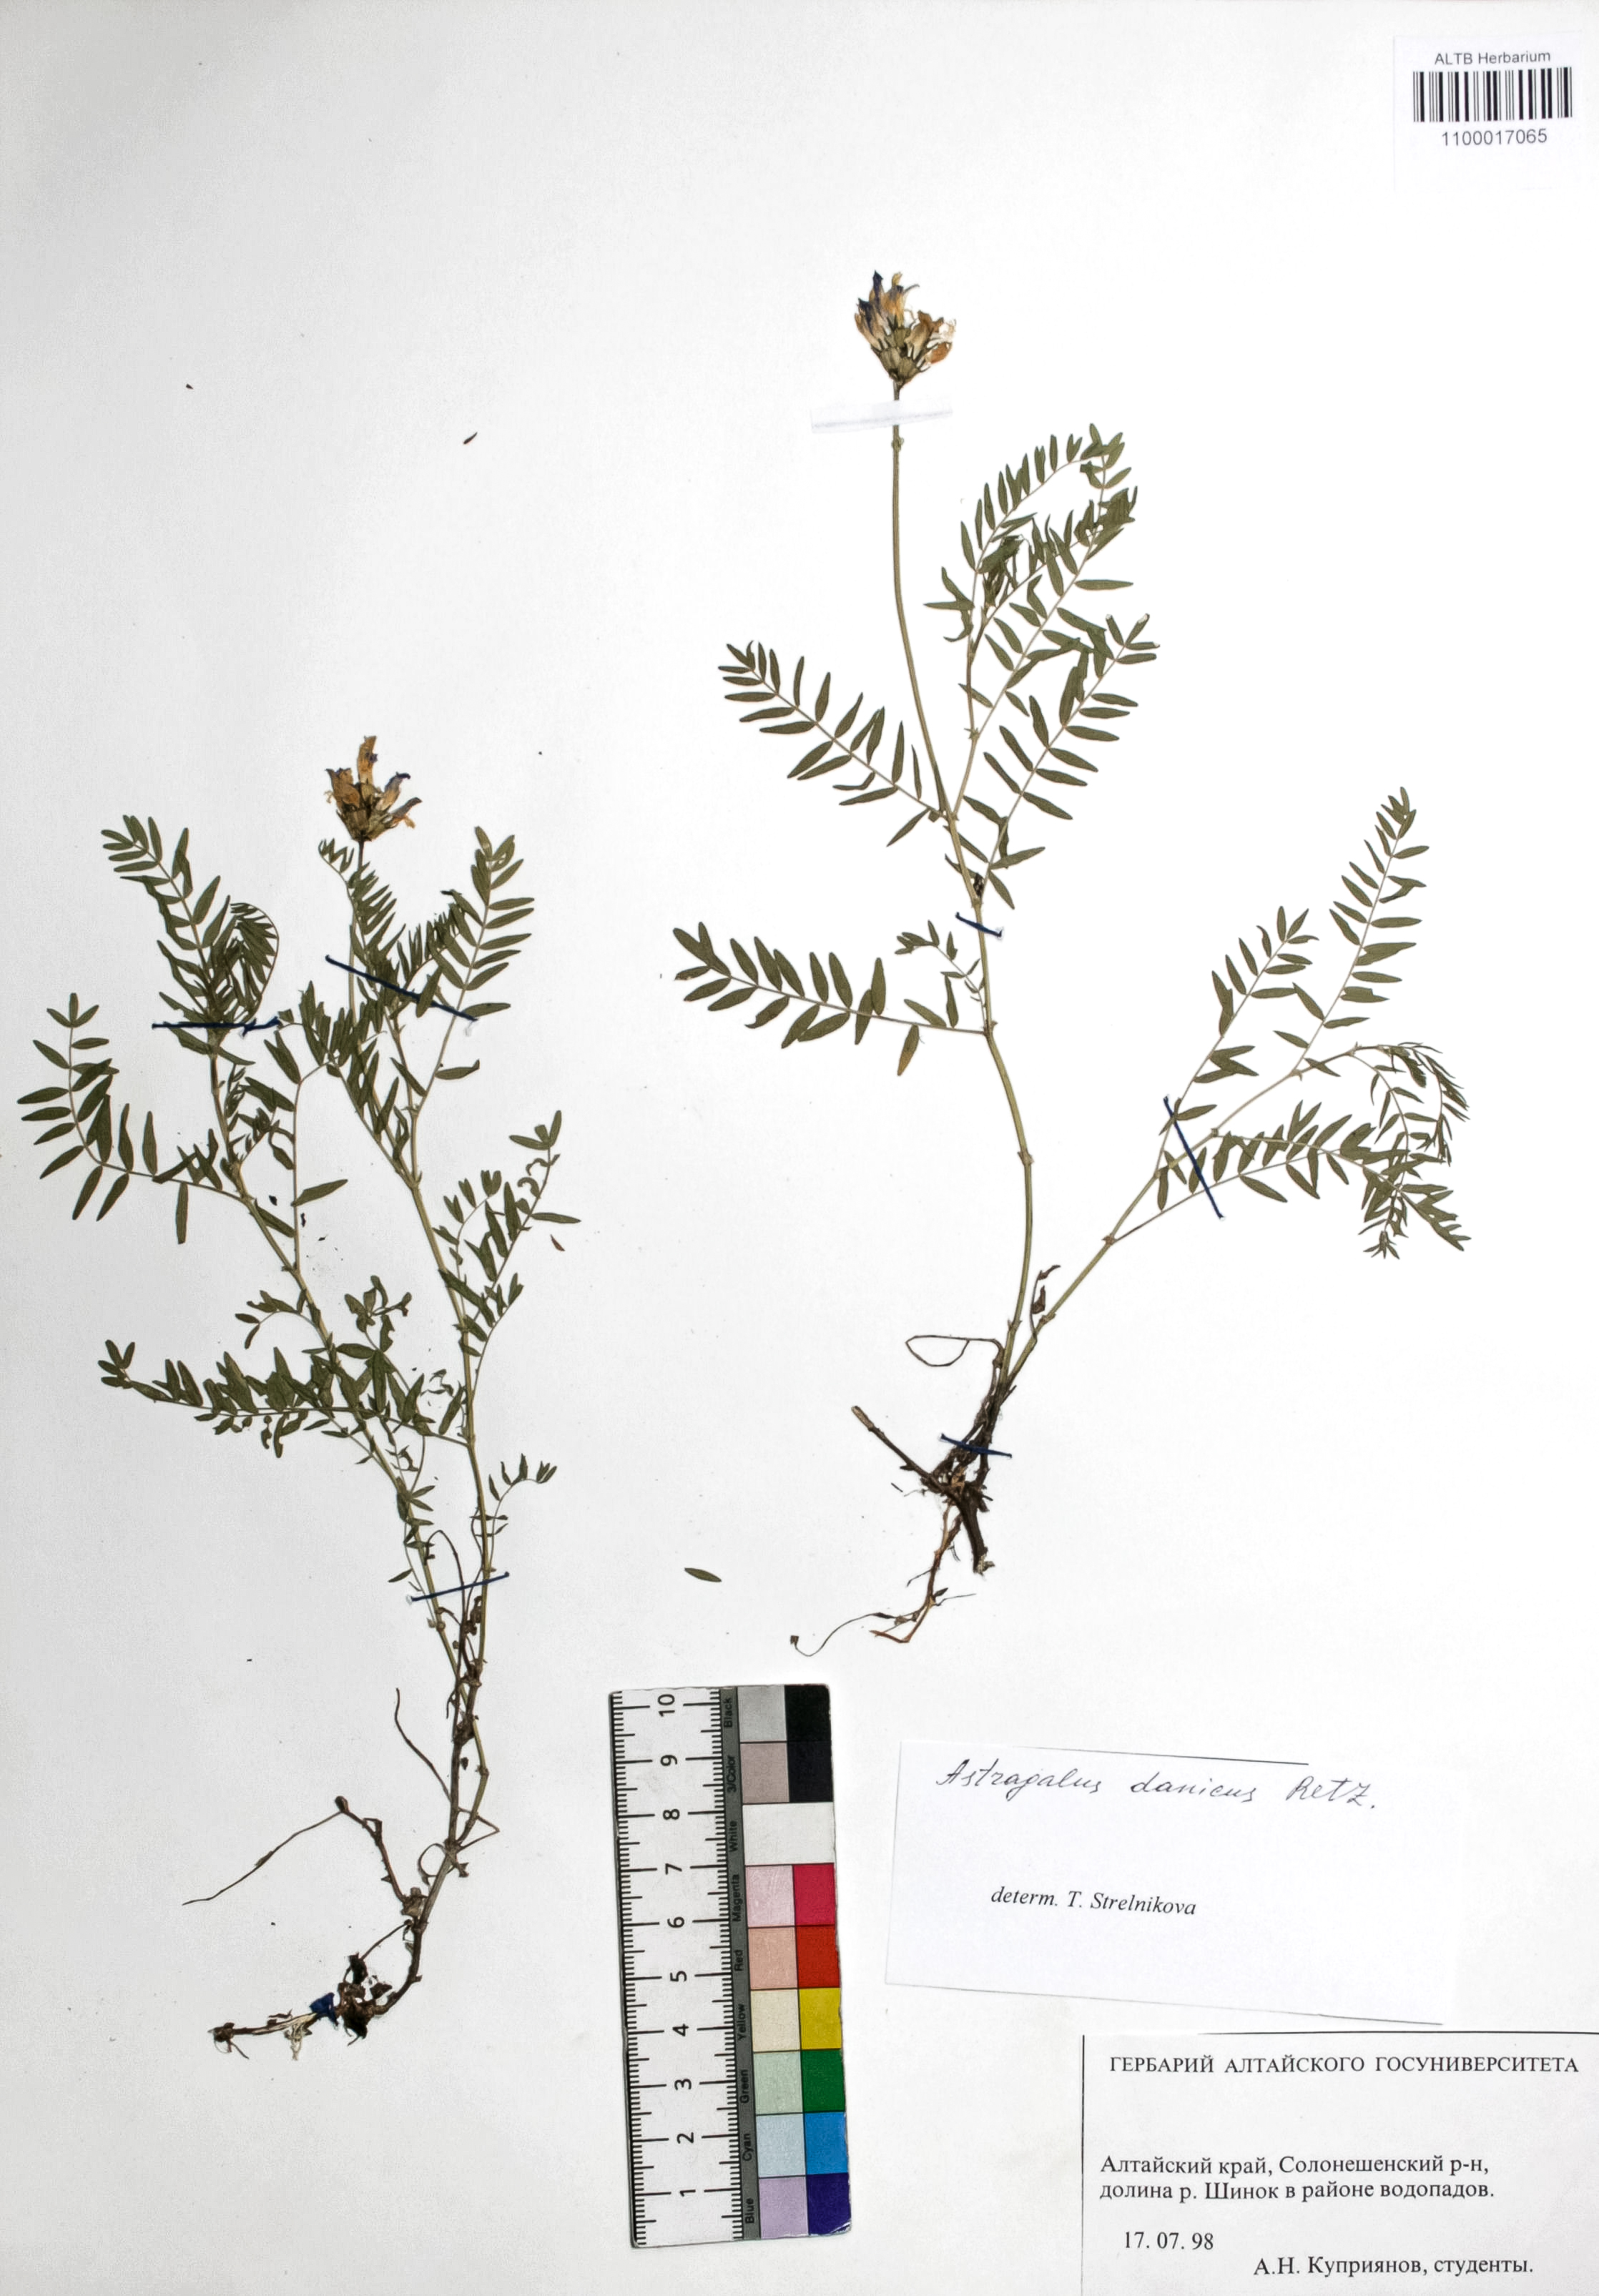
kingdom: Plantae
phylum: Tracheophyta
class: Magnoliopsida
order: Fabales
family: Fabaceae
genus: Astragalus
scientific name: Astragalus ceratoides
